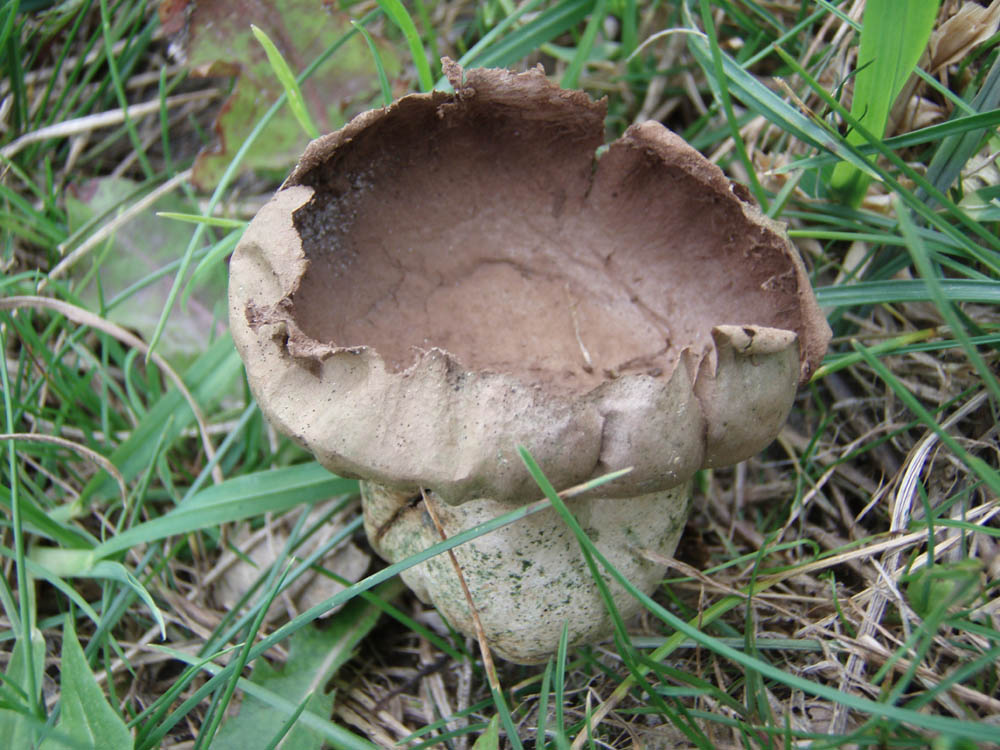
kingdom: Fungi
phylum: Basidiomycota
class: Agaricomycetes
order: Agaricales
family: Lycoperdaceae
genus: Bovistella
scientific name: Bovistella utriformis
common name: skællet støvbold
